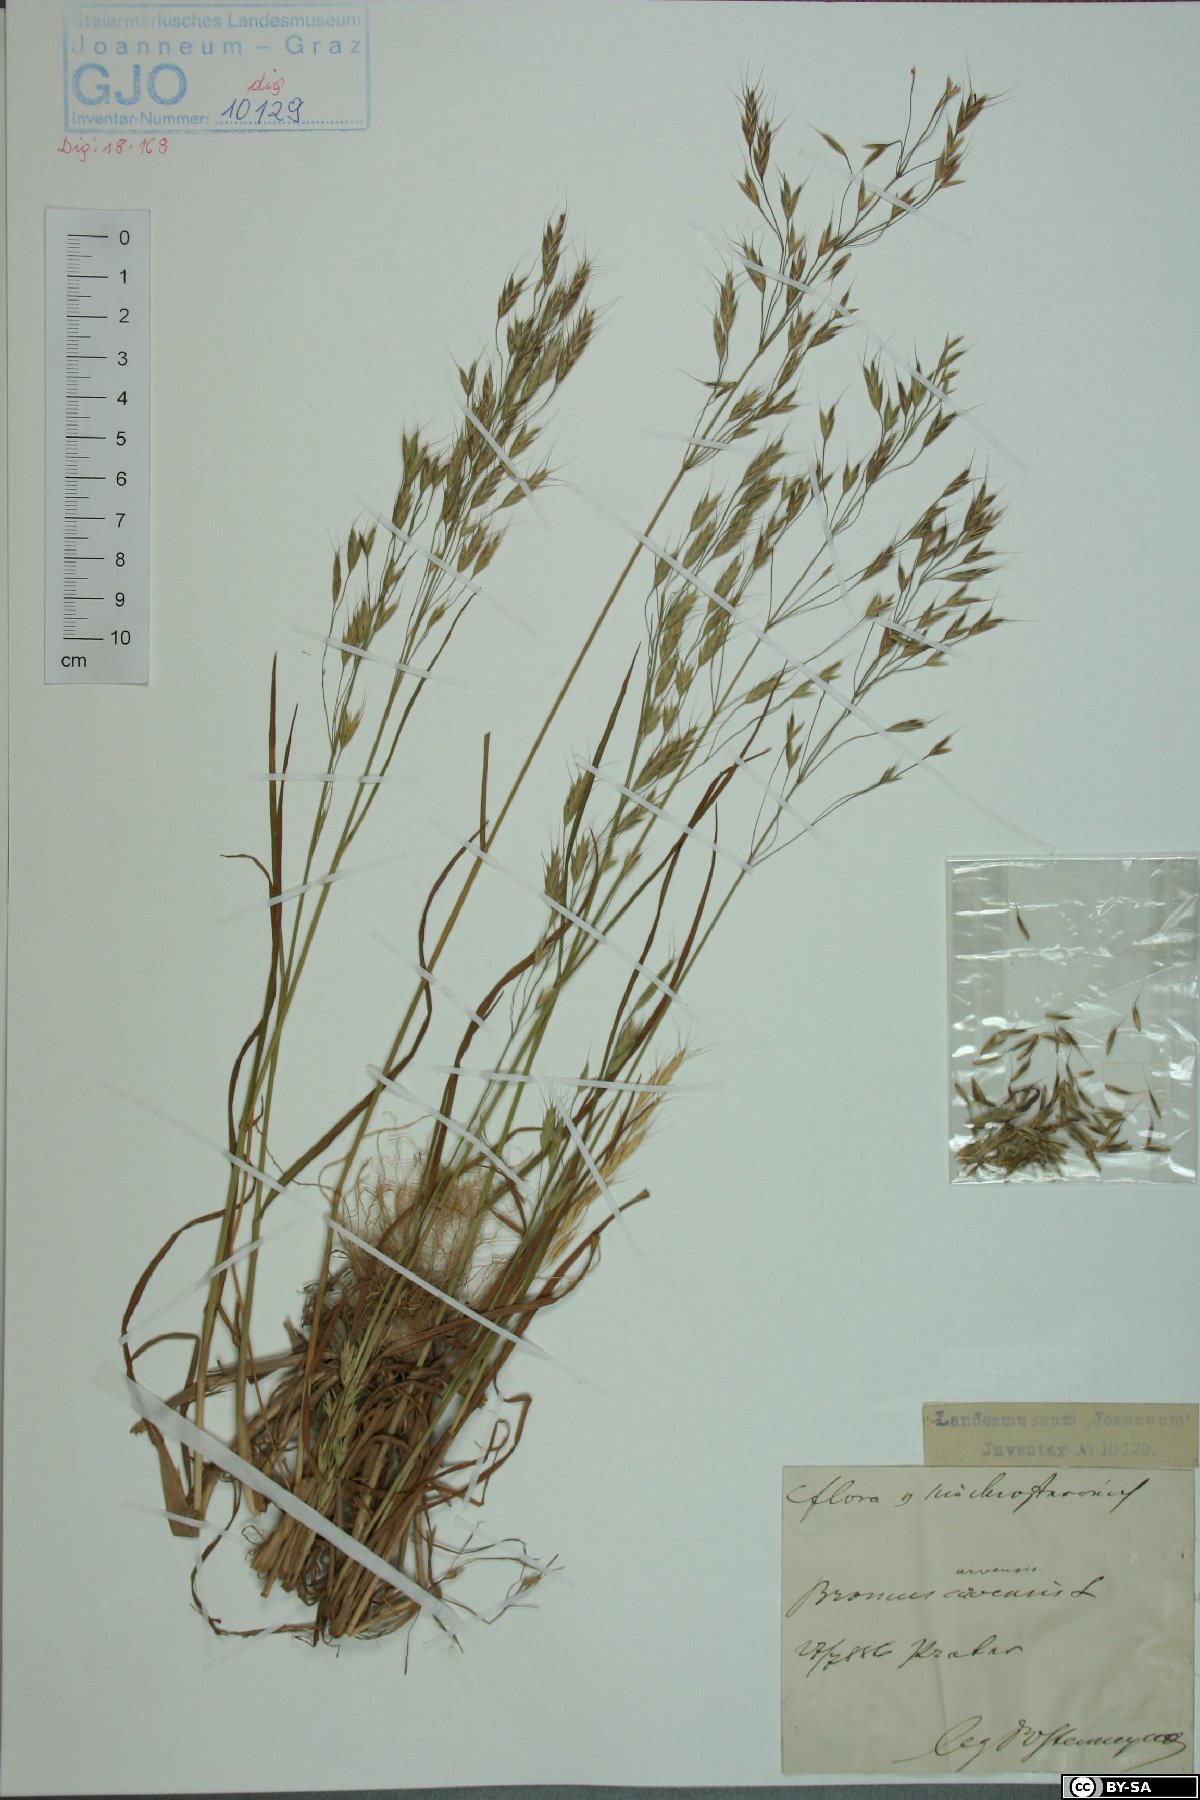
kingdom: Plantae
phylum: Tracheophyta
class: Liliopsida
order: Poales
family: Poaceae
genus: Bromus
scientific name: Bromus arvensis
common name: Field brome
